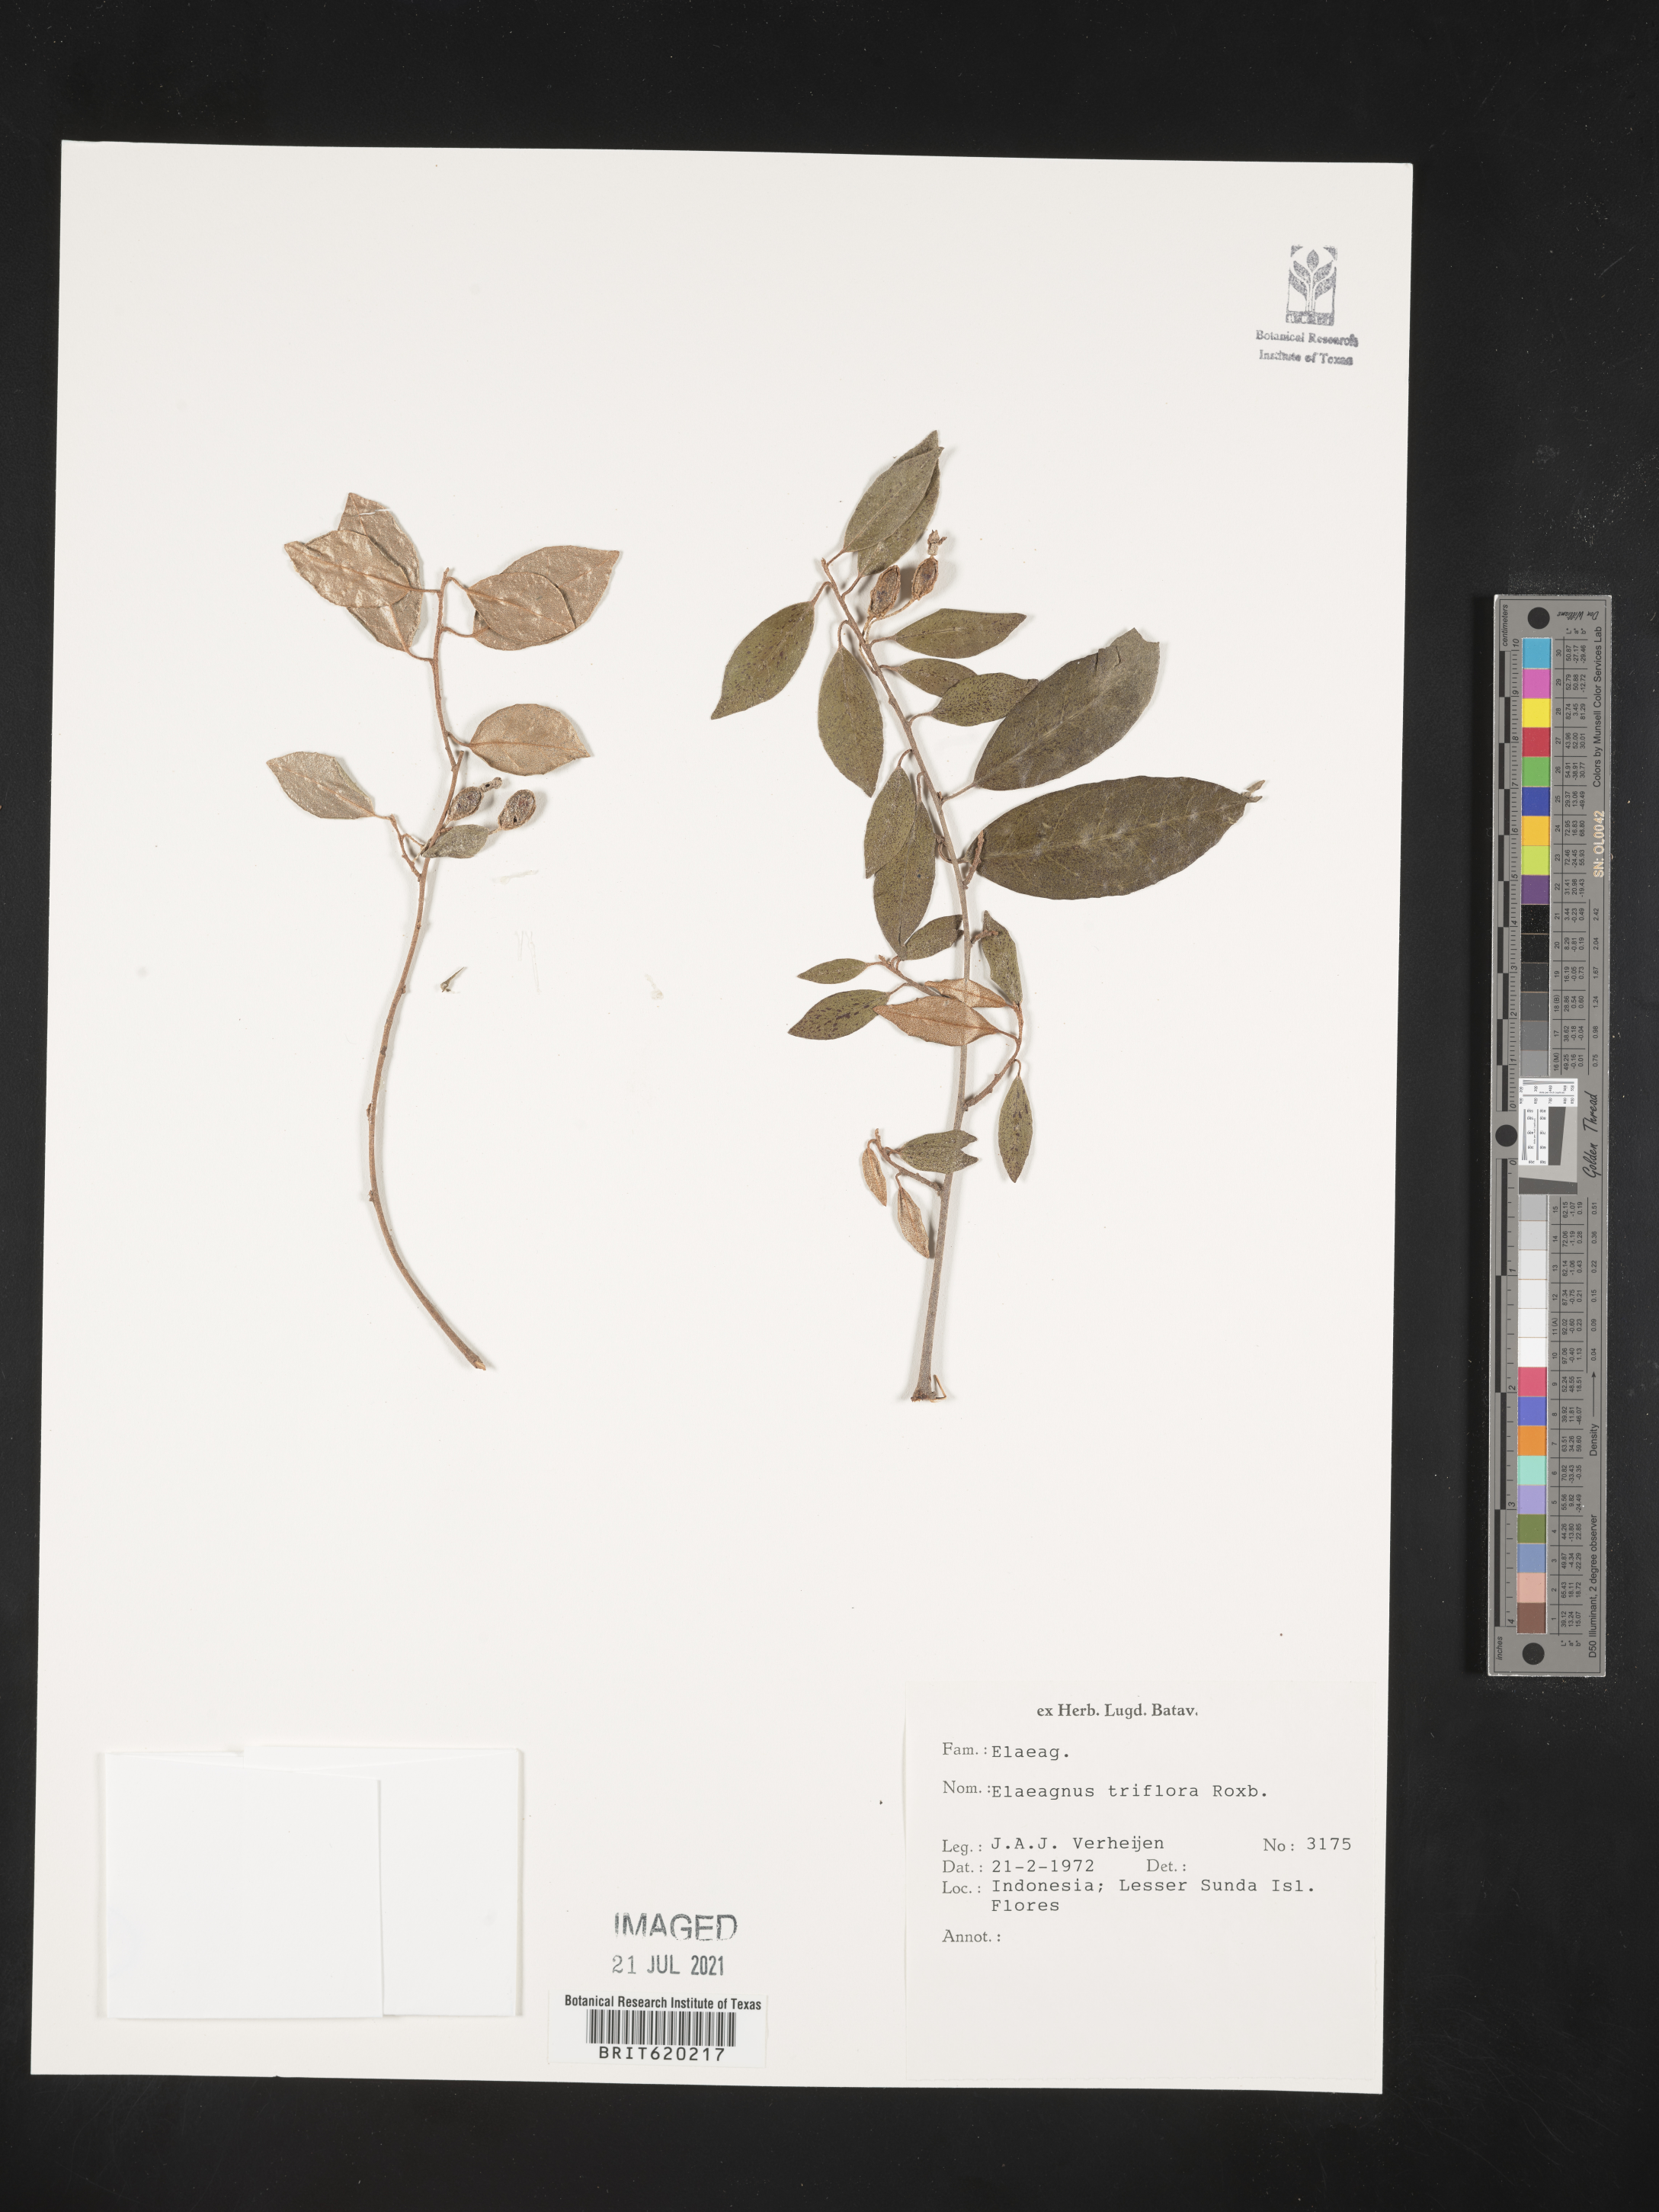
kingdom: Plantae
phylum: Tracheophyta
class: Magnoliopsida
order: Rosales
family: Elaeagnaceae
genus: Elaeagnus
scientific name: Elaeagnus triflora
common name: Millaa millaa-vine
